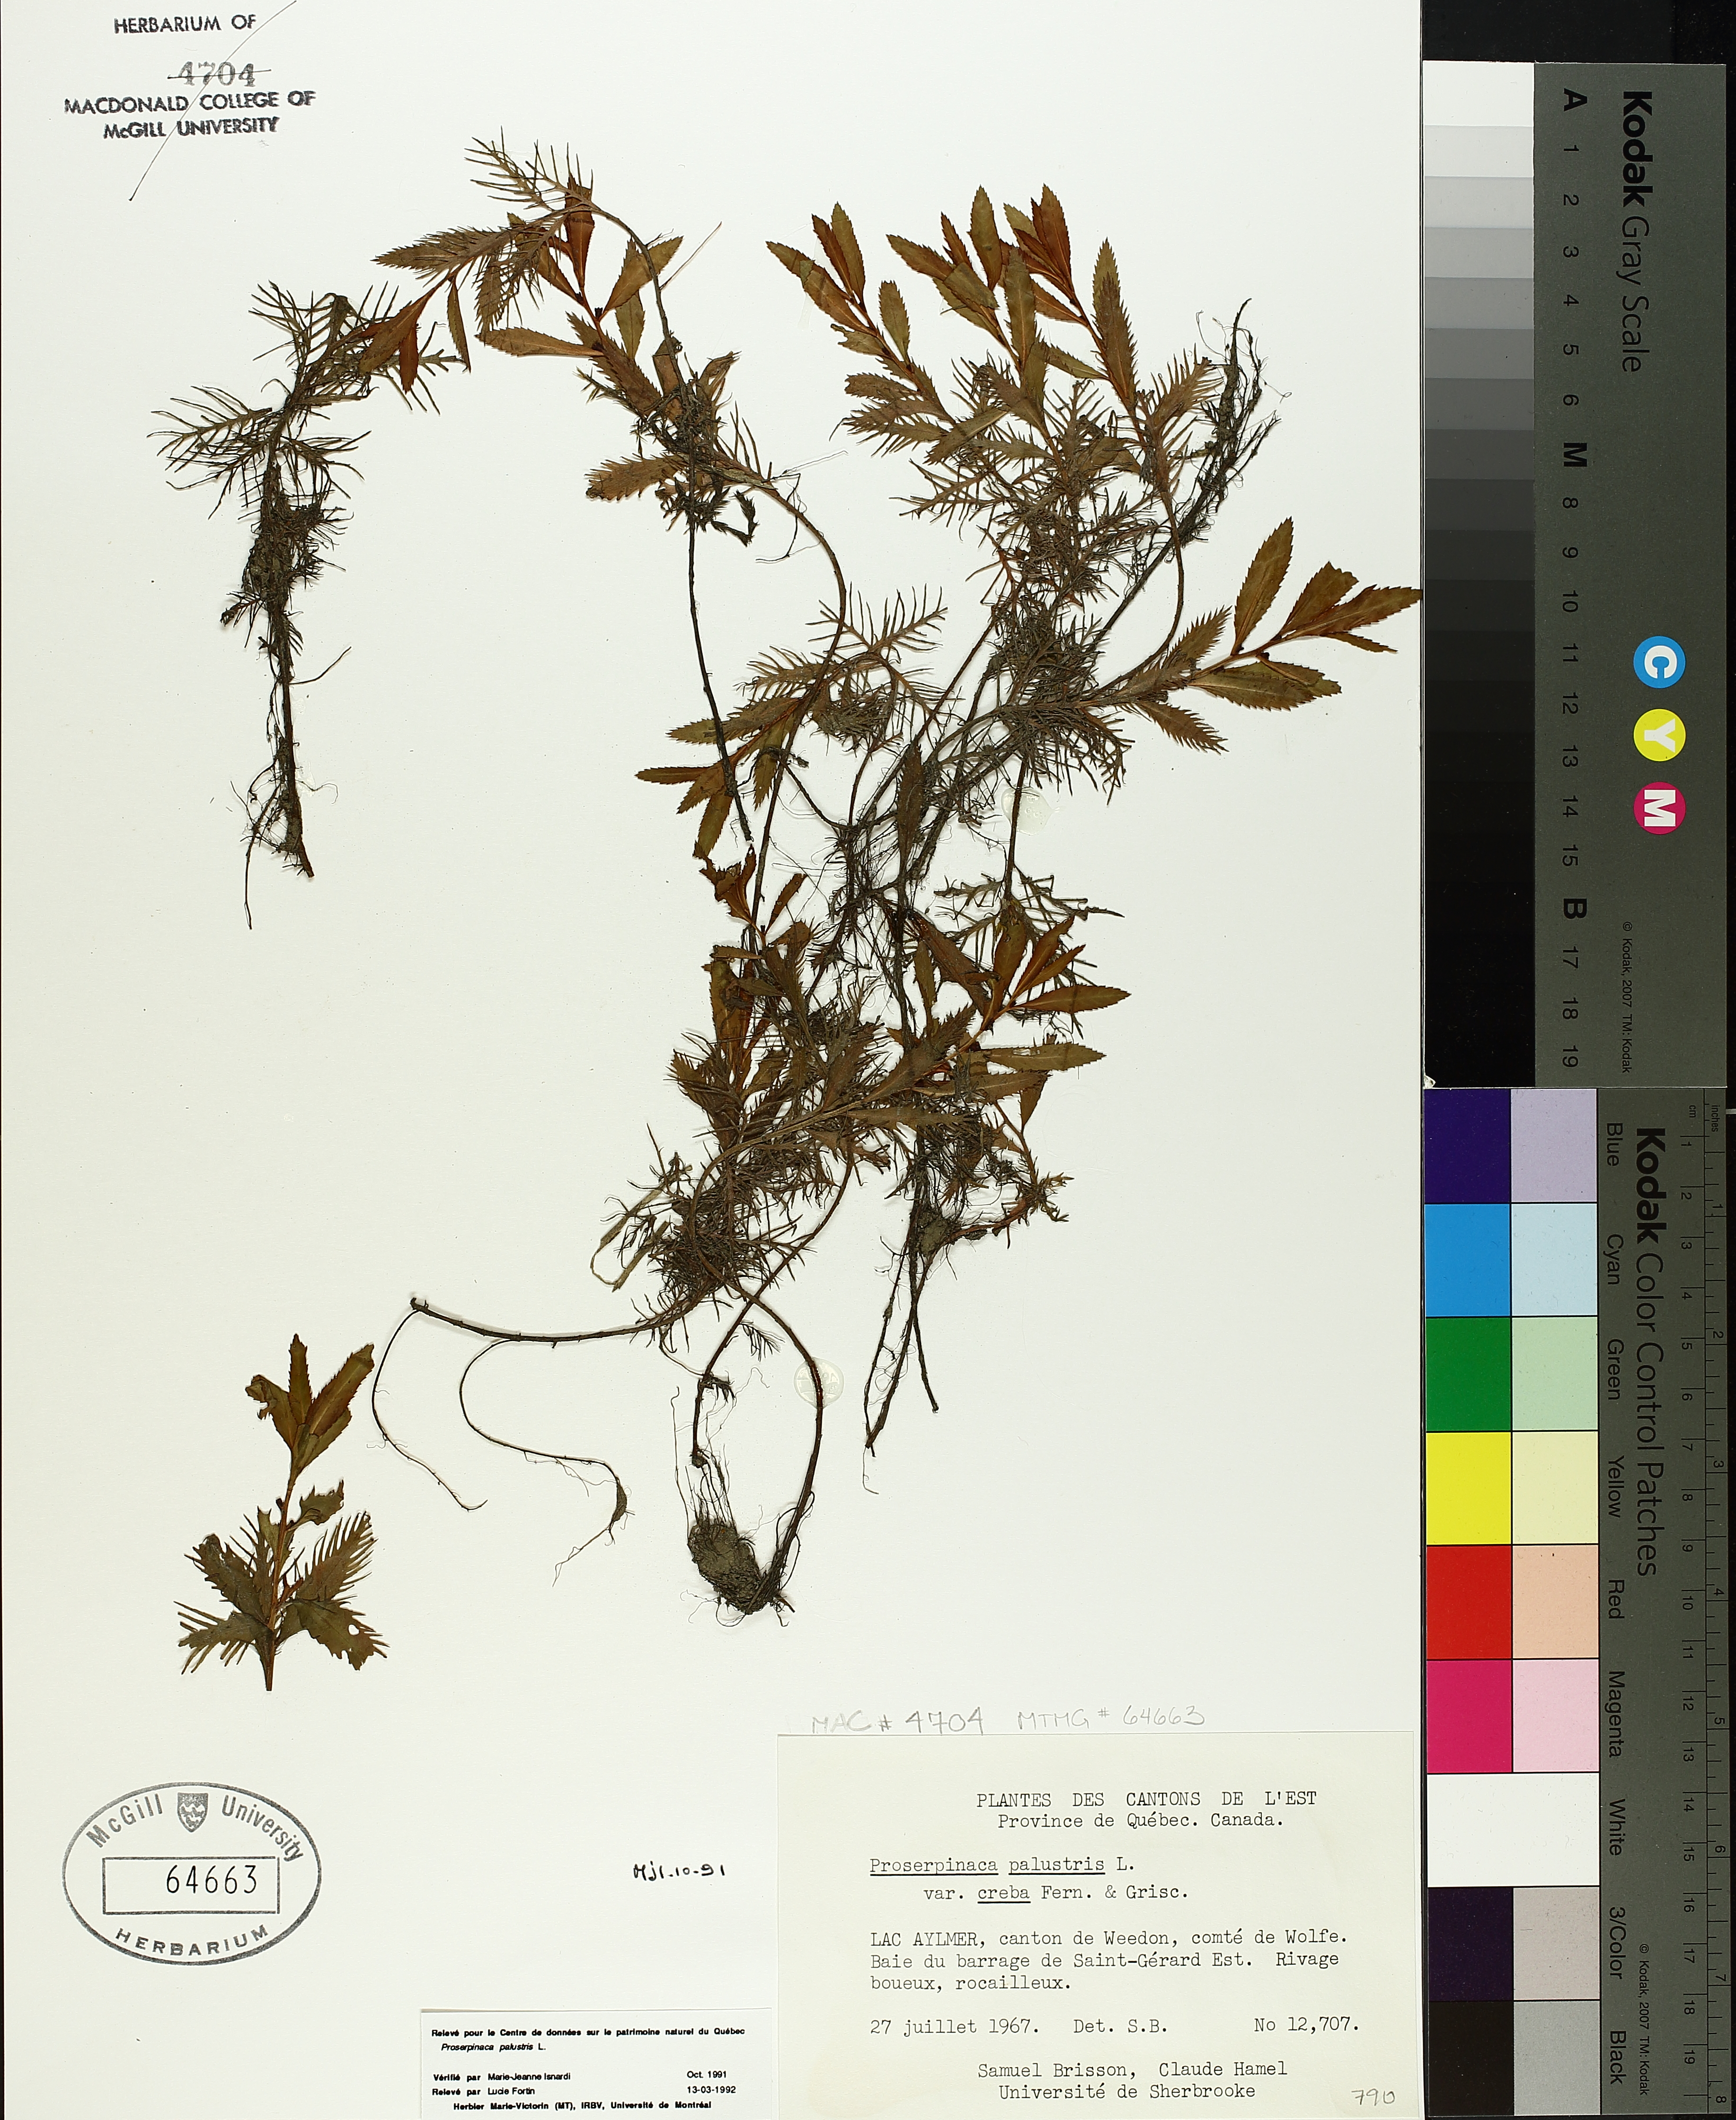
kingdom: Plantae
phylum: Tracheophyta
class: Magnoliopsida
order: Saxifragales
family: Haloragaceae
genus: Proserpinaca
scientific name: Proserpinaca palustris
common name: Marsh mermaidweed
